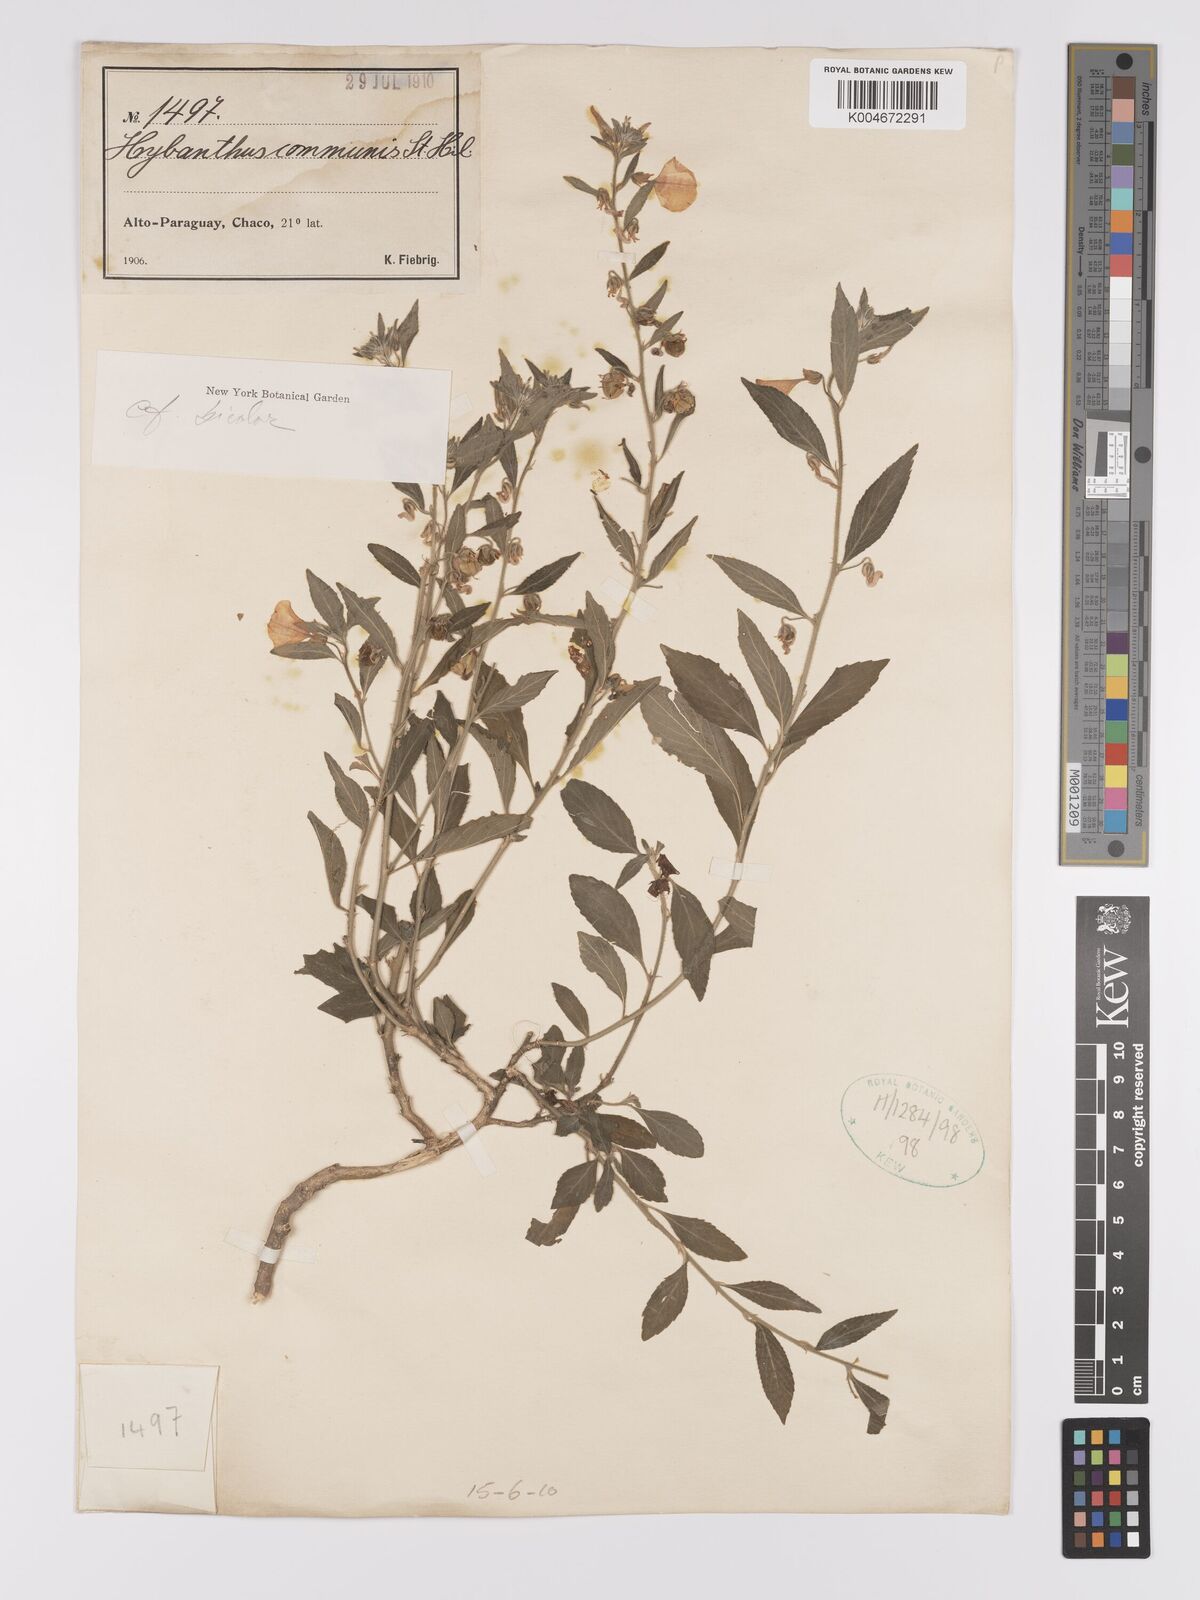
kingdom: Plantae
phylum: Tracheophyta
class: Magnoliopsida
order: Malpighiales
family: Violaceae
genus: Pombalia
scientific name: Pombalia bicolor
